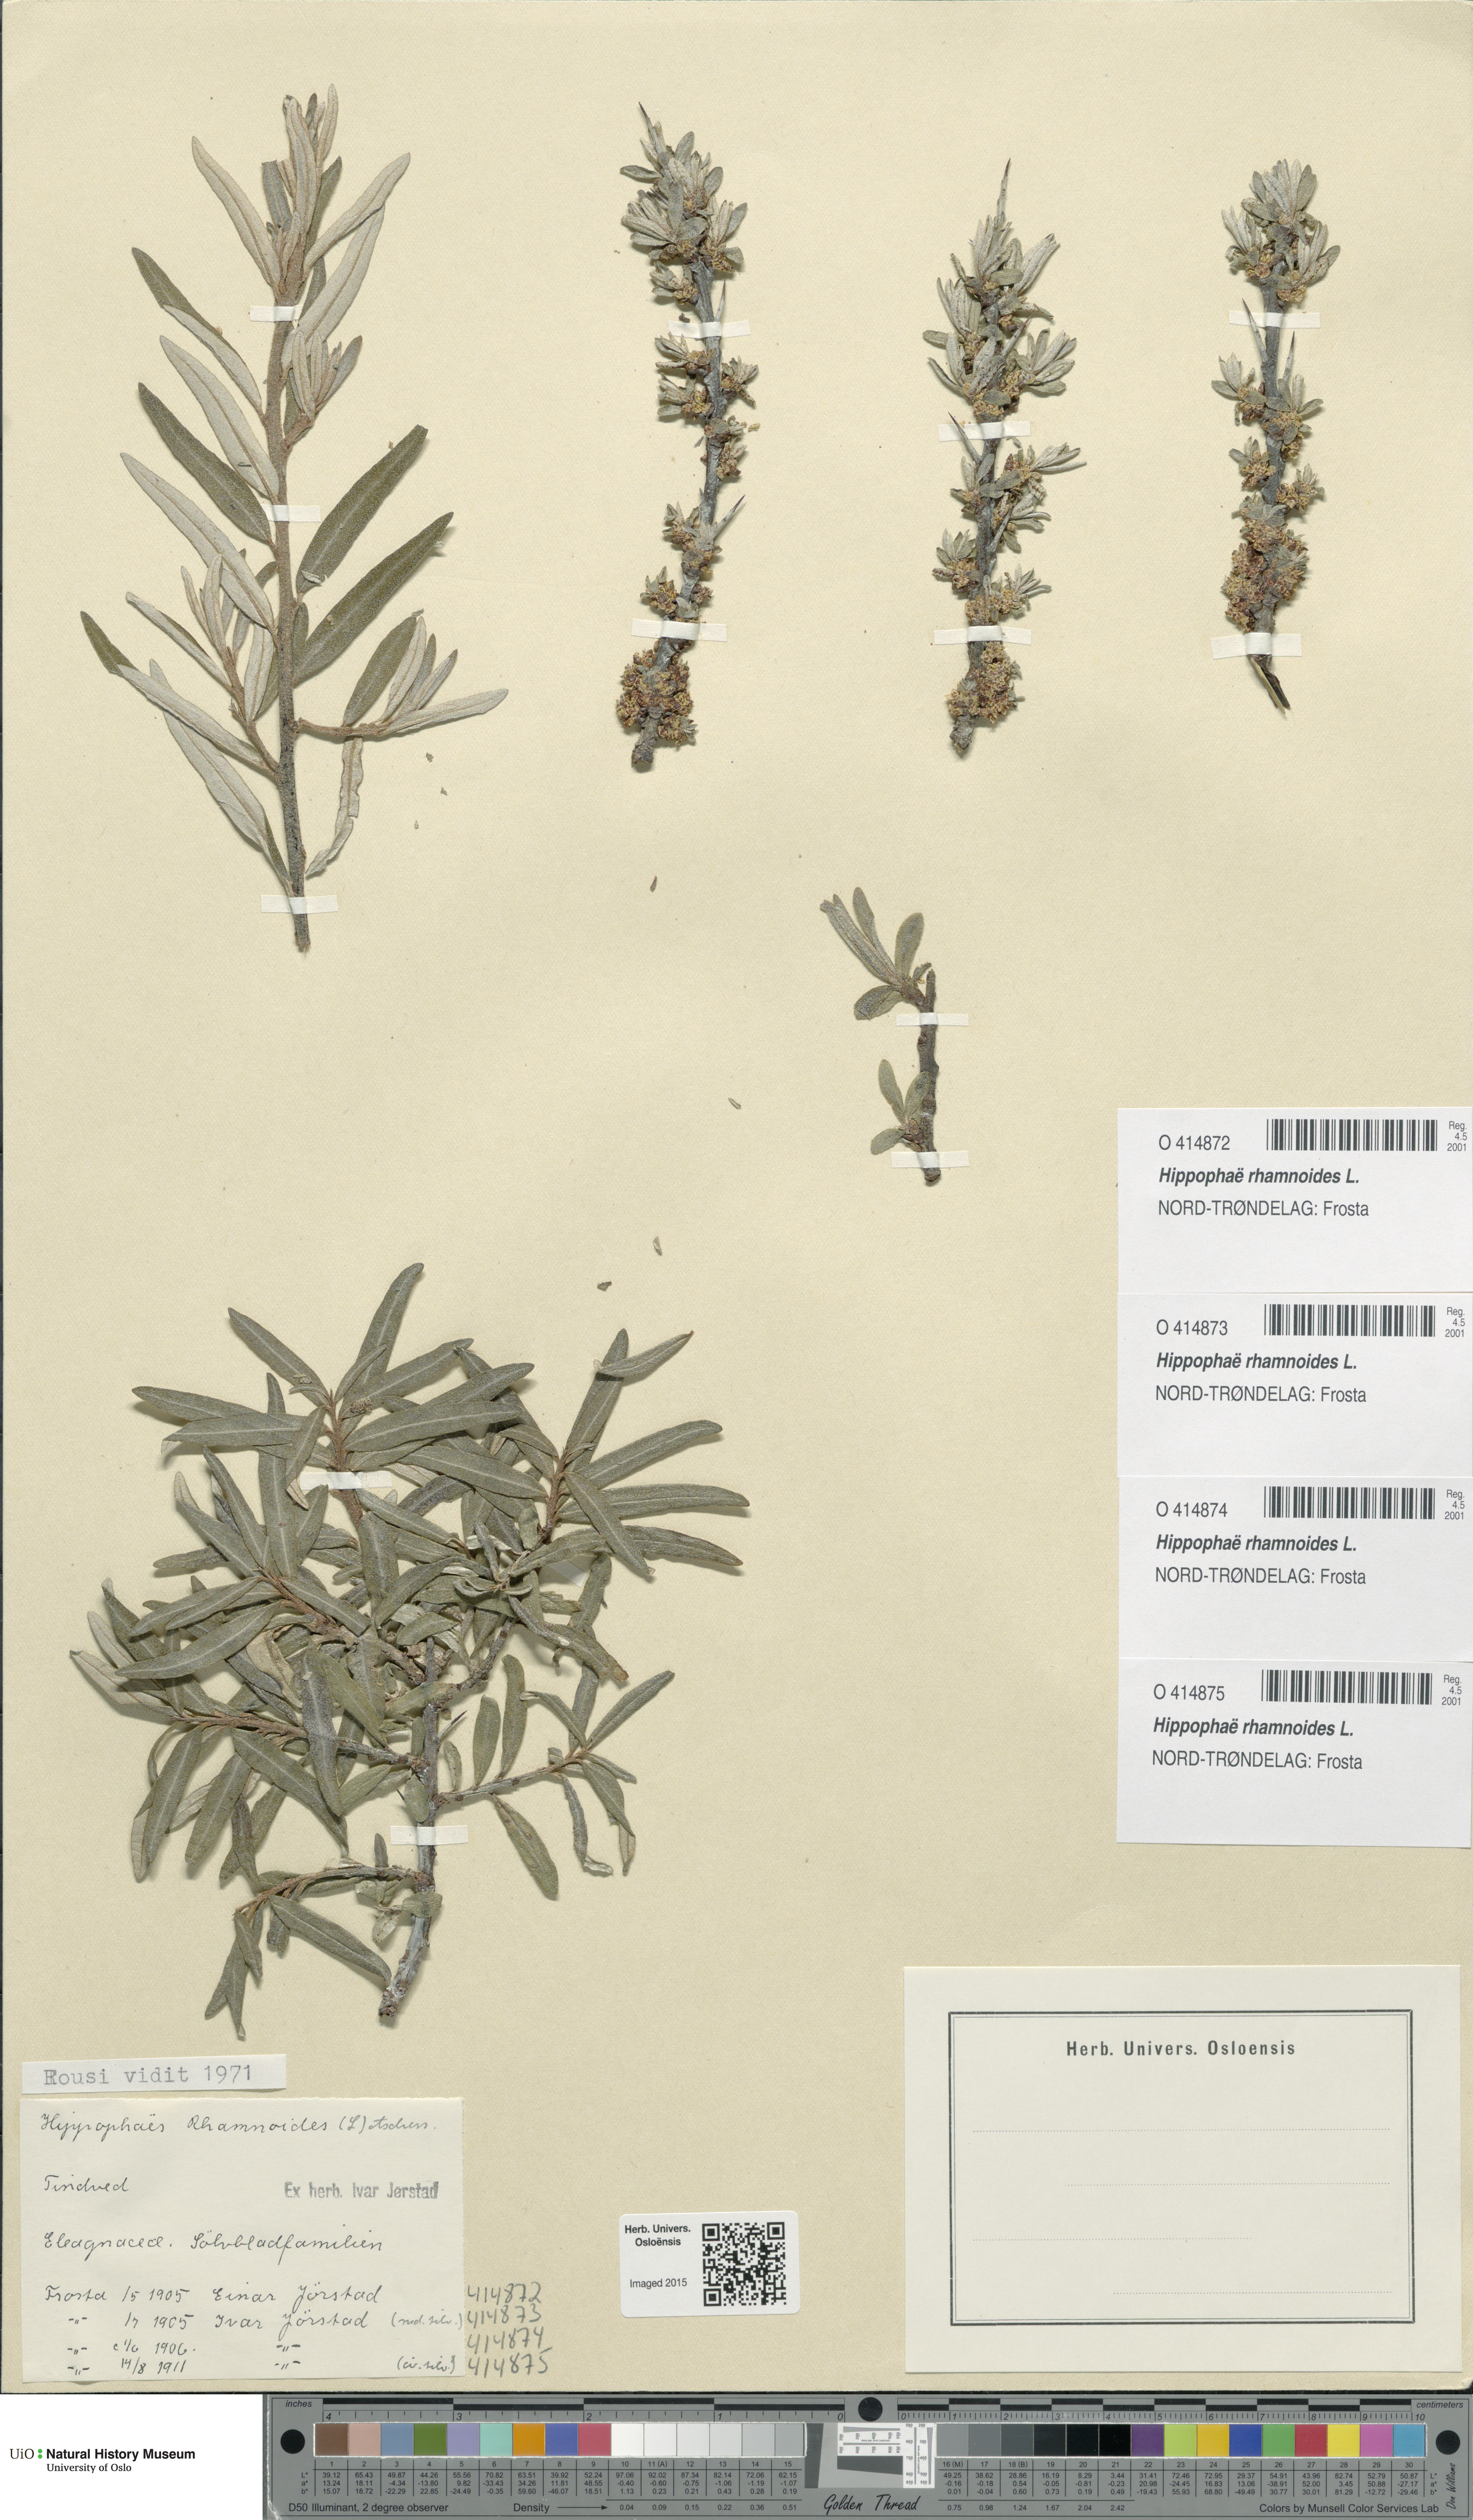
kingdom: Plantae
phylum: Tracheophyta
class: Magnoliopsida
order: Rosales
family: Elaeagnaceae
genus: Hippophae
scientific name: Hippophae rhamnoides
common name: Sea-buckthorn
